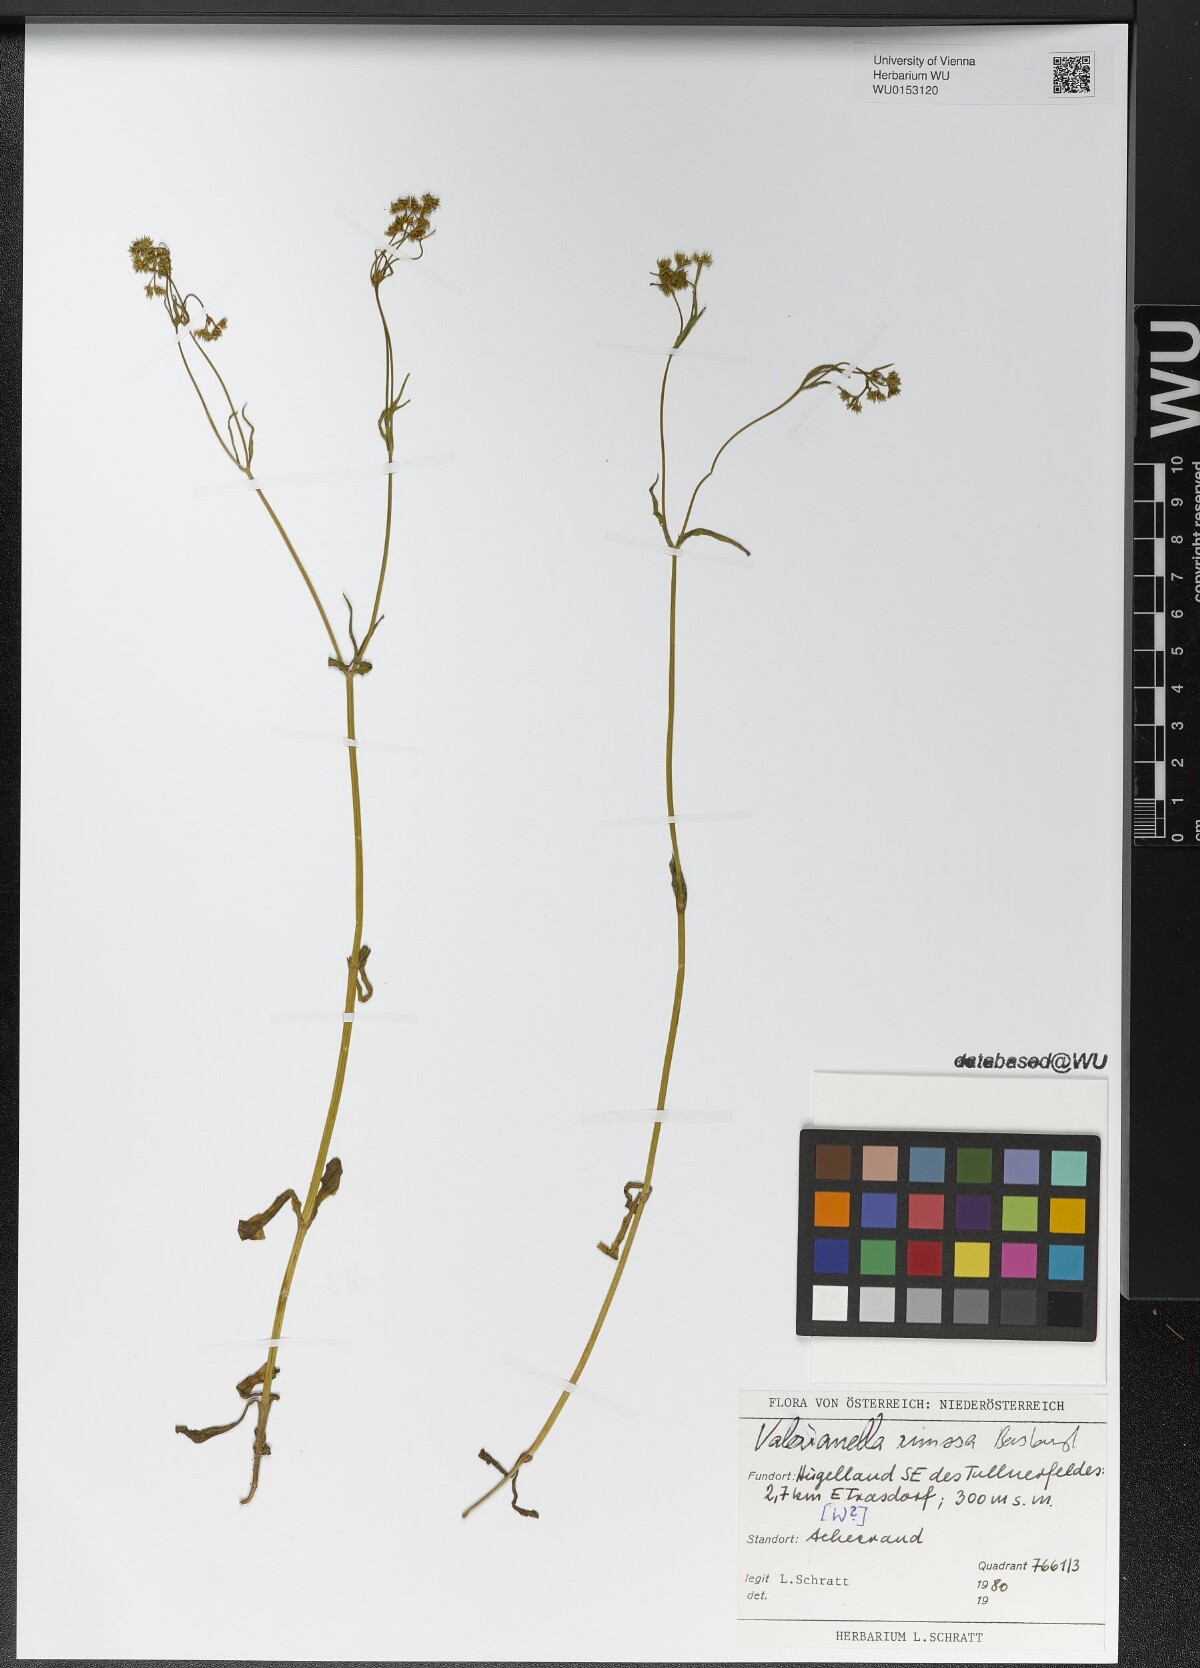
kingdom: Plantae
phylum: Tracheophyta
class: Magnoliopsida
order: Dipsacales
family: Caprifoliaceae
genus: Valerianella
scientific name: Valerianella rimosa
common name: Broad-fruited cornsalad
